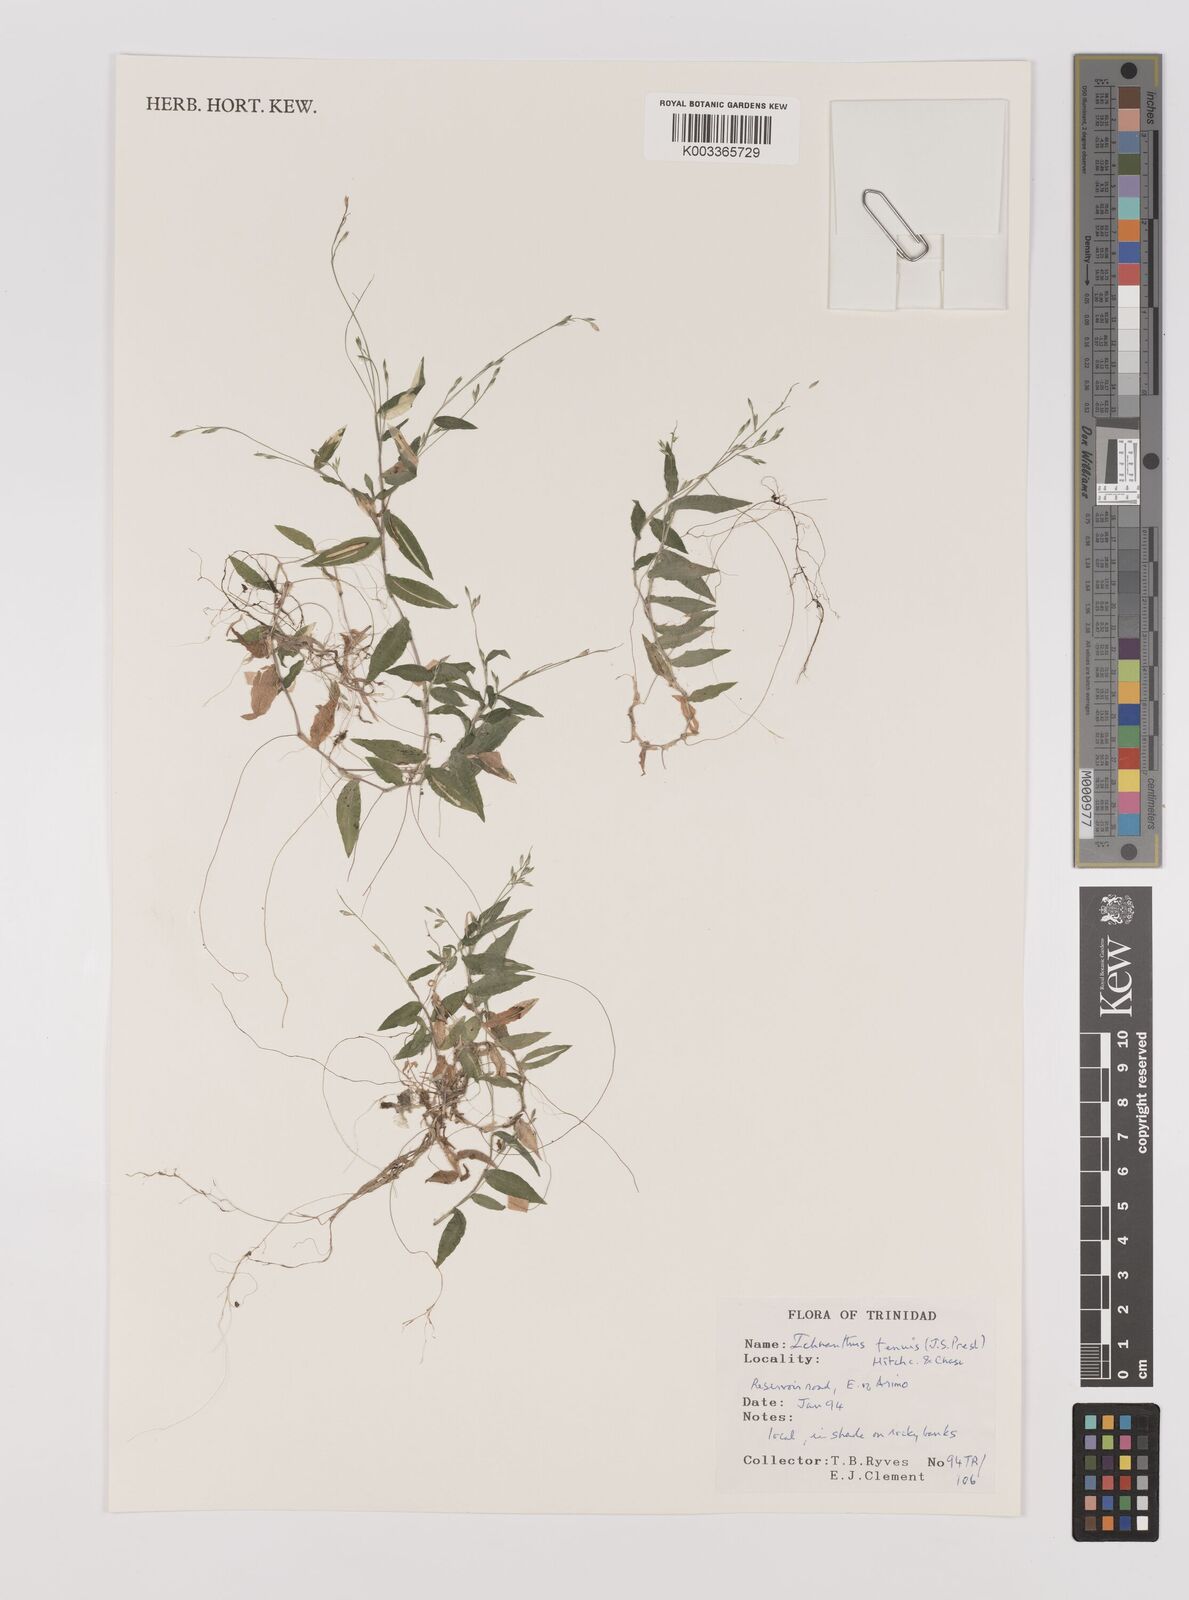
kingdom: Plantae
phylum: Tracheophyta
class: Liliopsida
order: Poales
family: Poaceae
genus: Ichnanthus
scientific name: Ichnanthus tenuis
